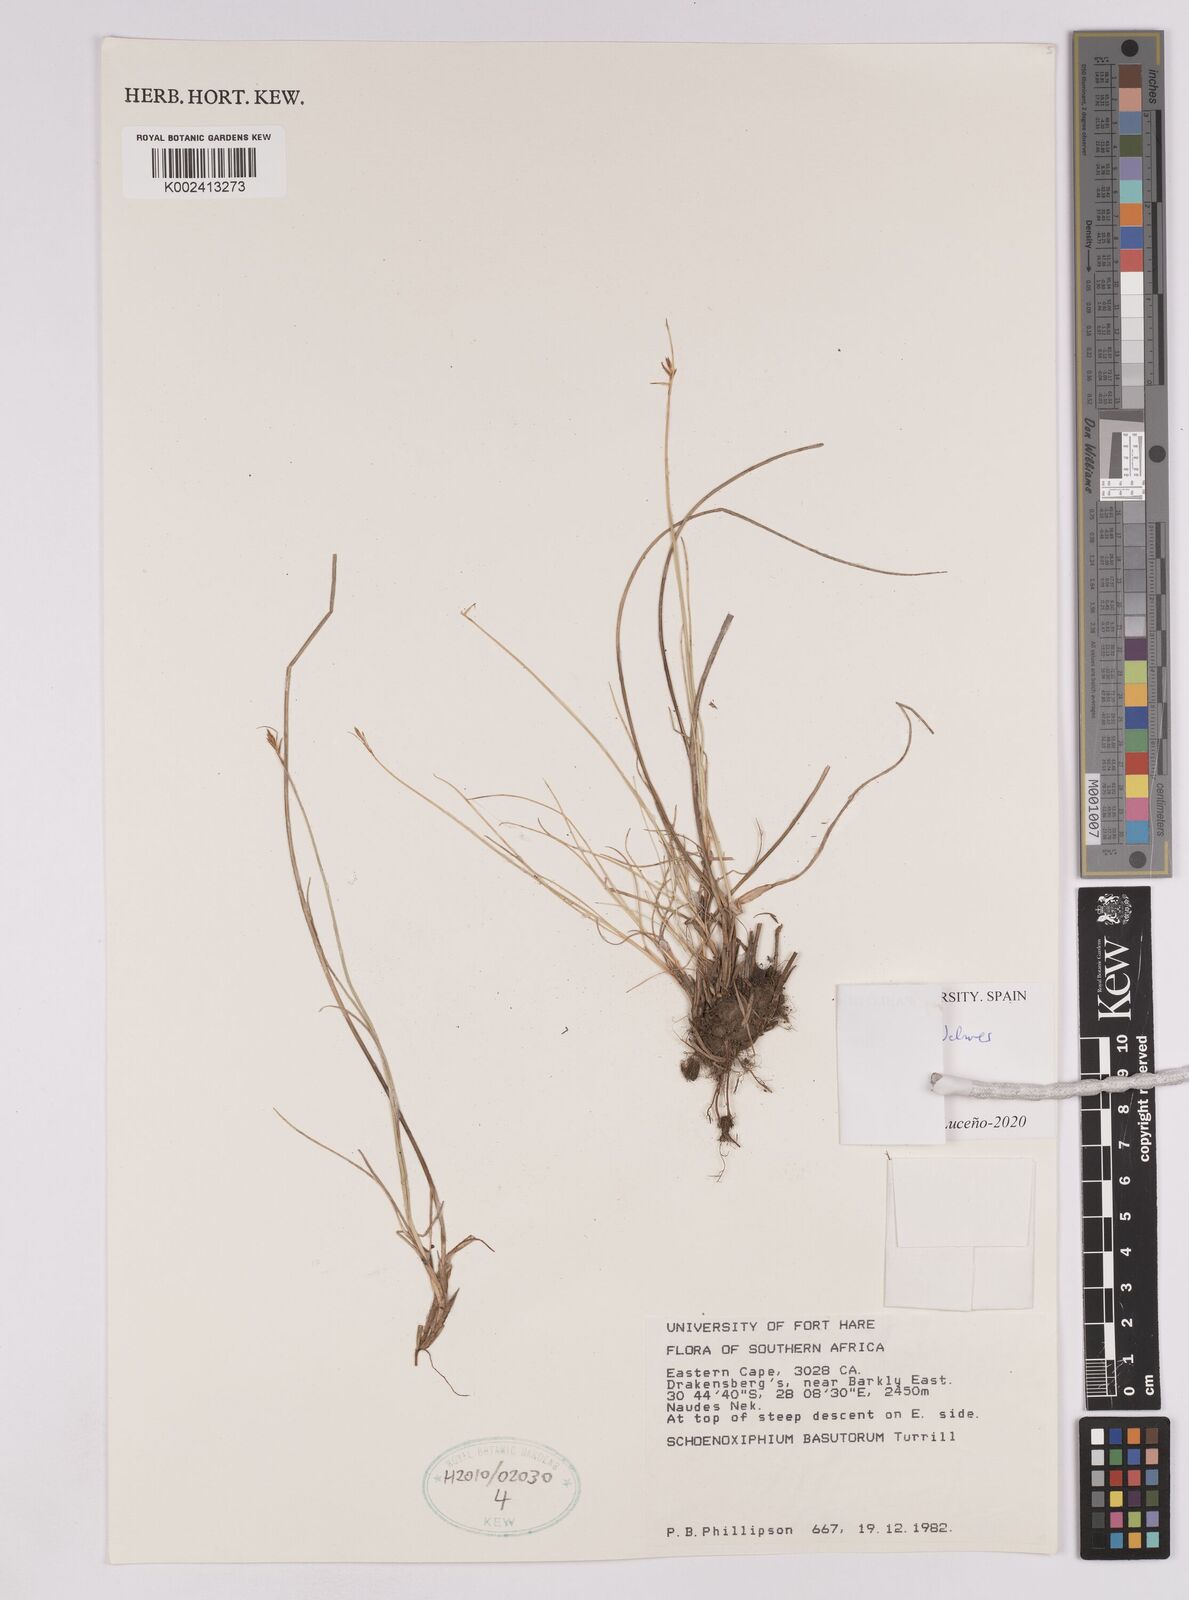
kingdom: Plantae
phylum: Tracheophyta
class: Liliopsida
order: Poales
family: Cyperaceae
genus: Carex
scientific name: Carex
